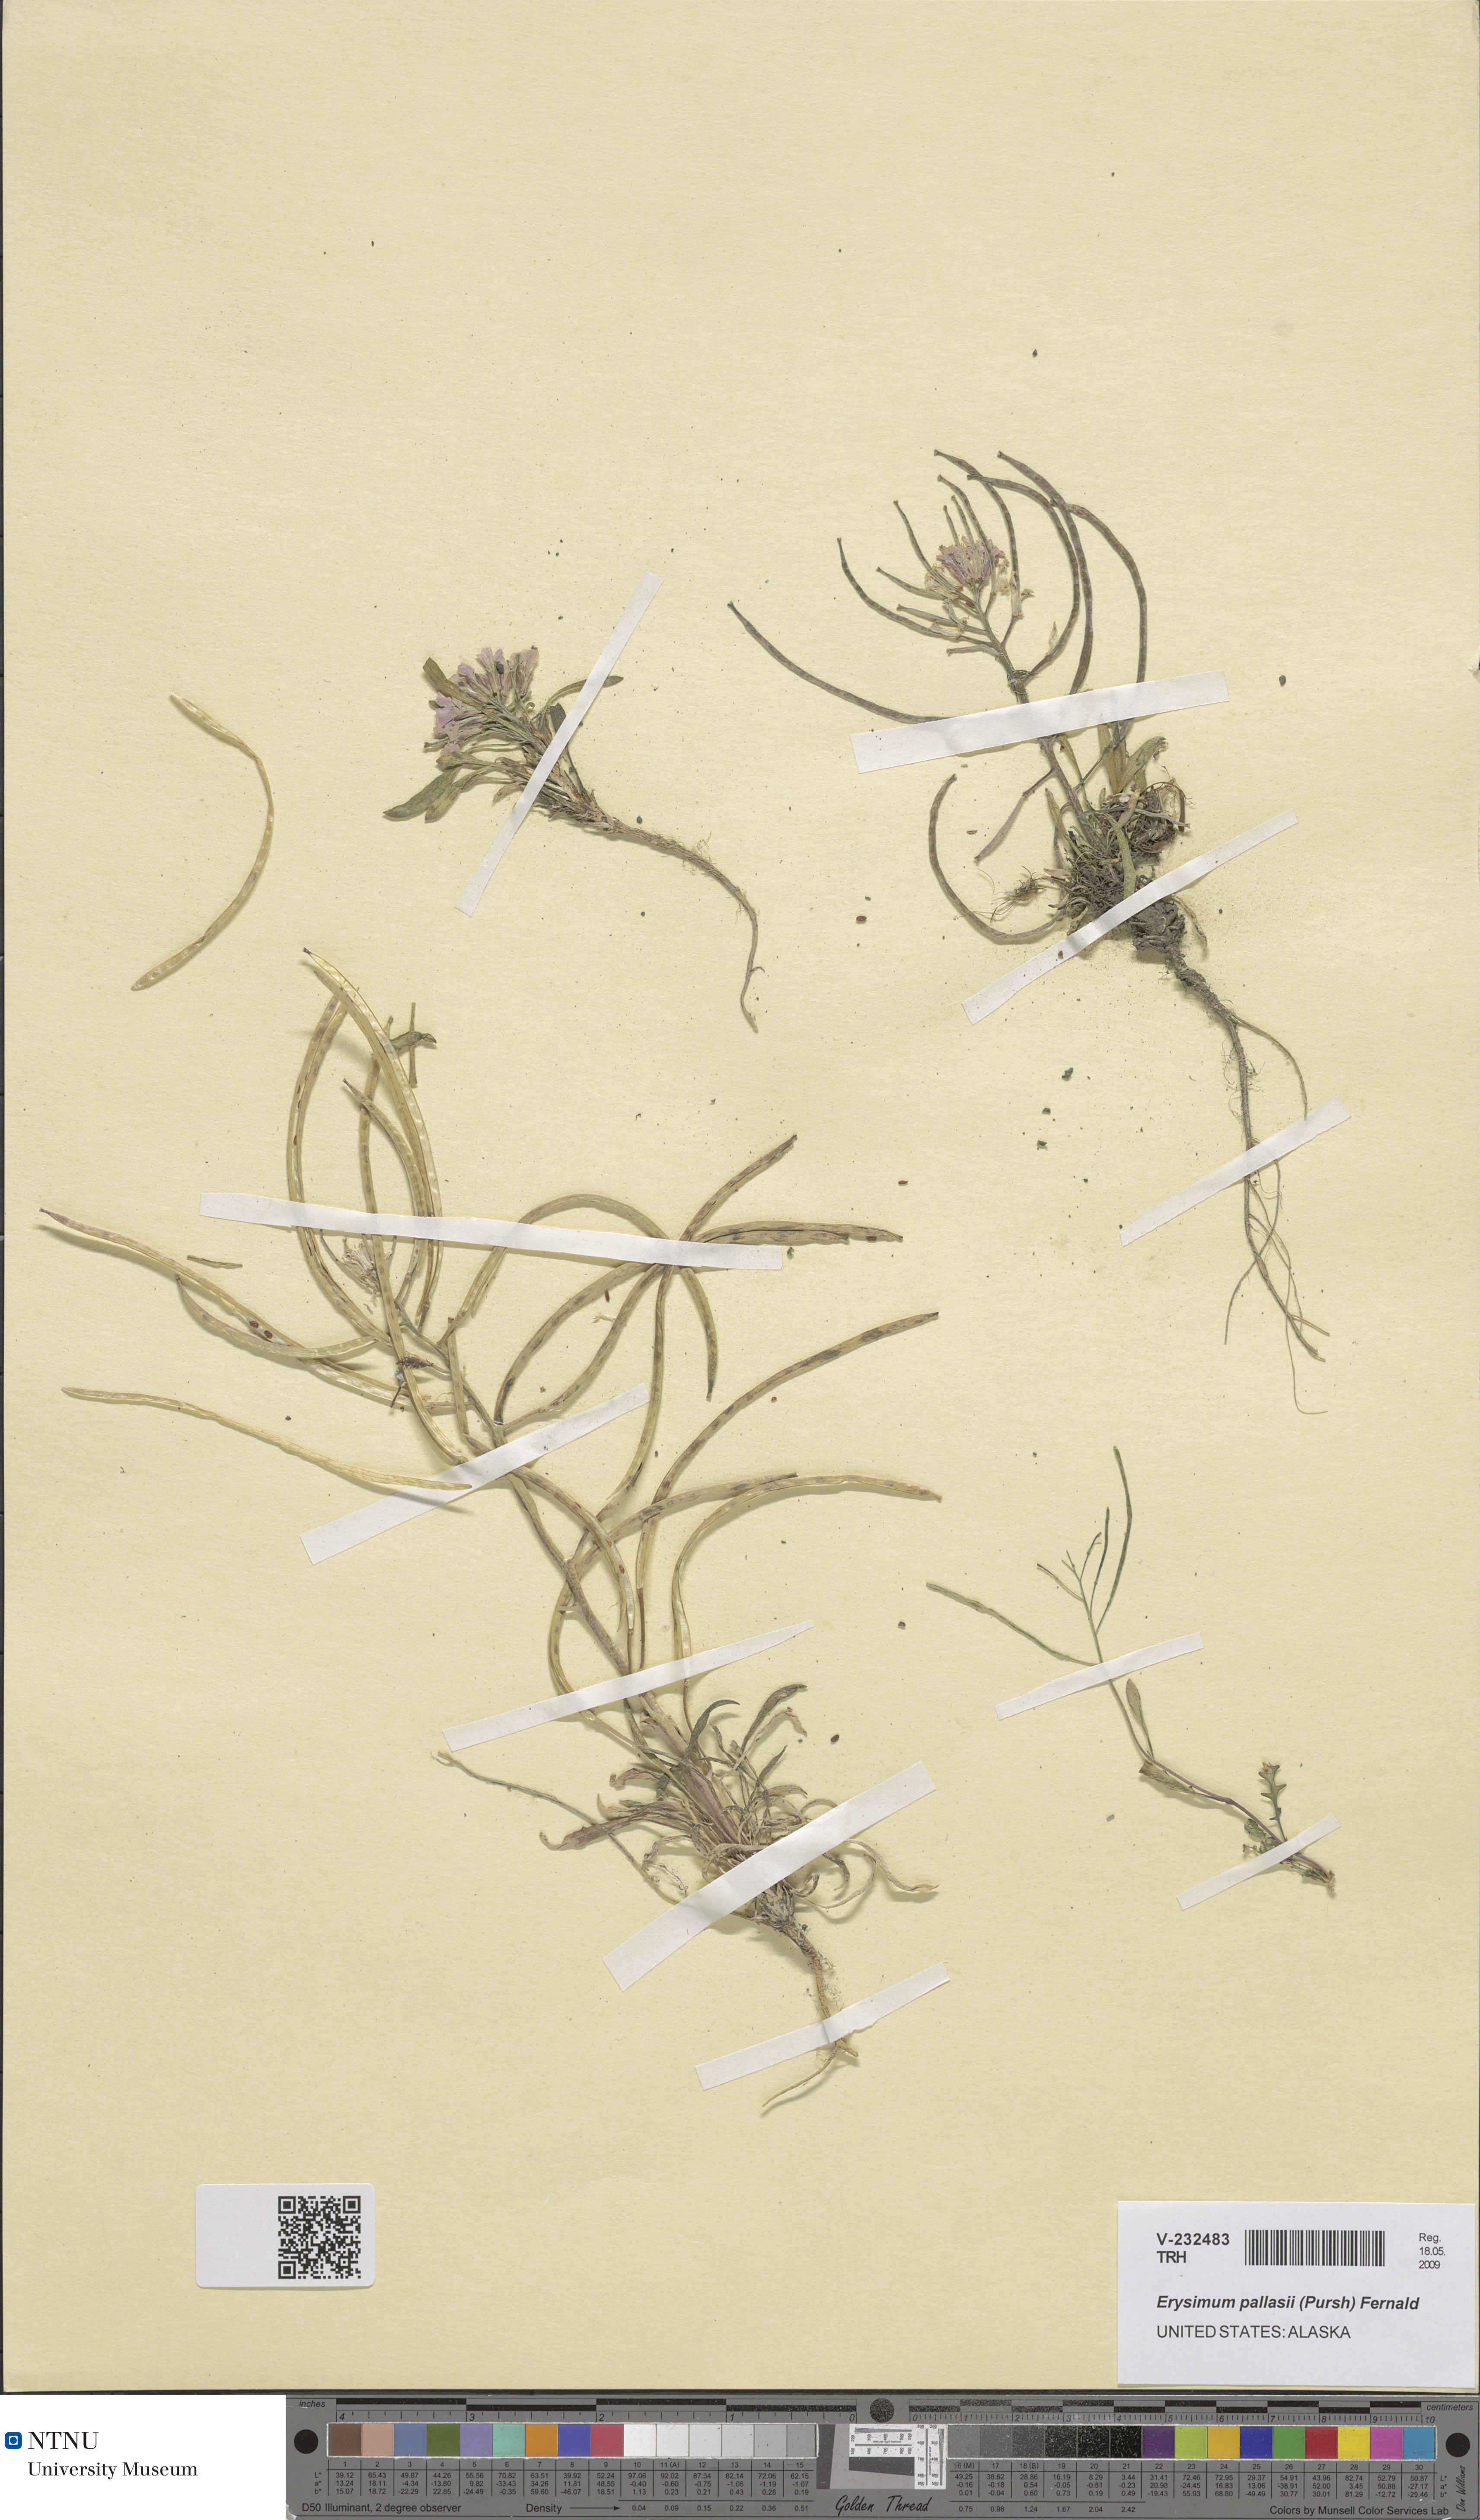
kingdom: Plantae
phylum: Tracheophyta
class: Magnoliopsida
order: Brassicales
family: Brassicaceae
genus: Erysimum
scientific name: Erysimum pallasii
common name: Pallas' wallflower
